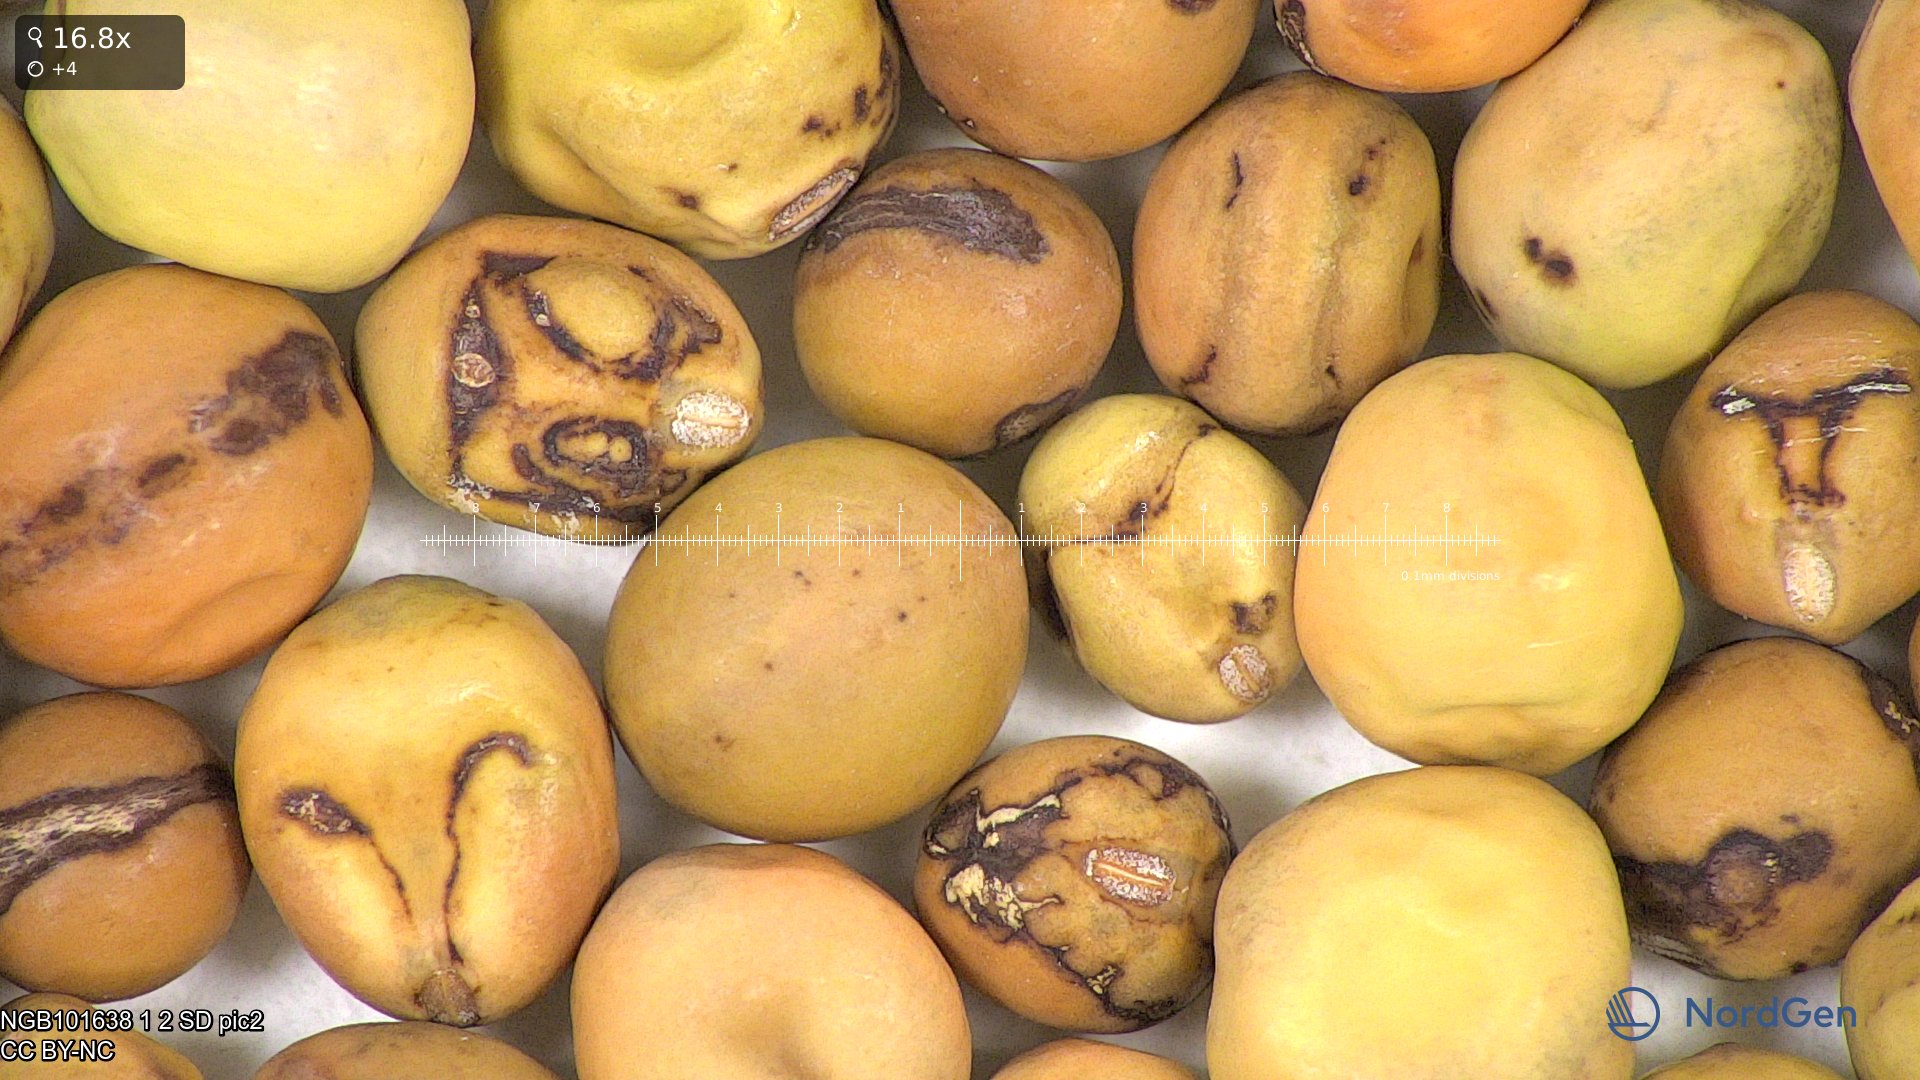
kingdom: Plantae
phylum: Tracheophyta
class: Magnoliopsida
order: Fabales
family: Fabaceae
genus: Lathyrus
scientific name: Lathyrus oleraceus
